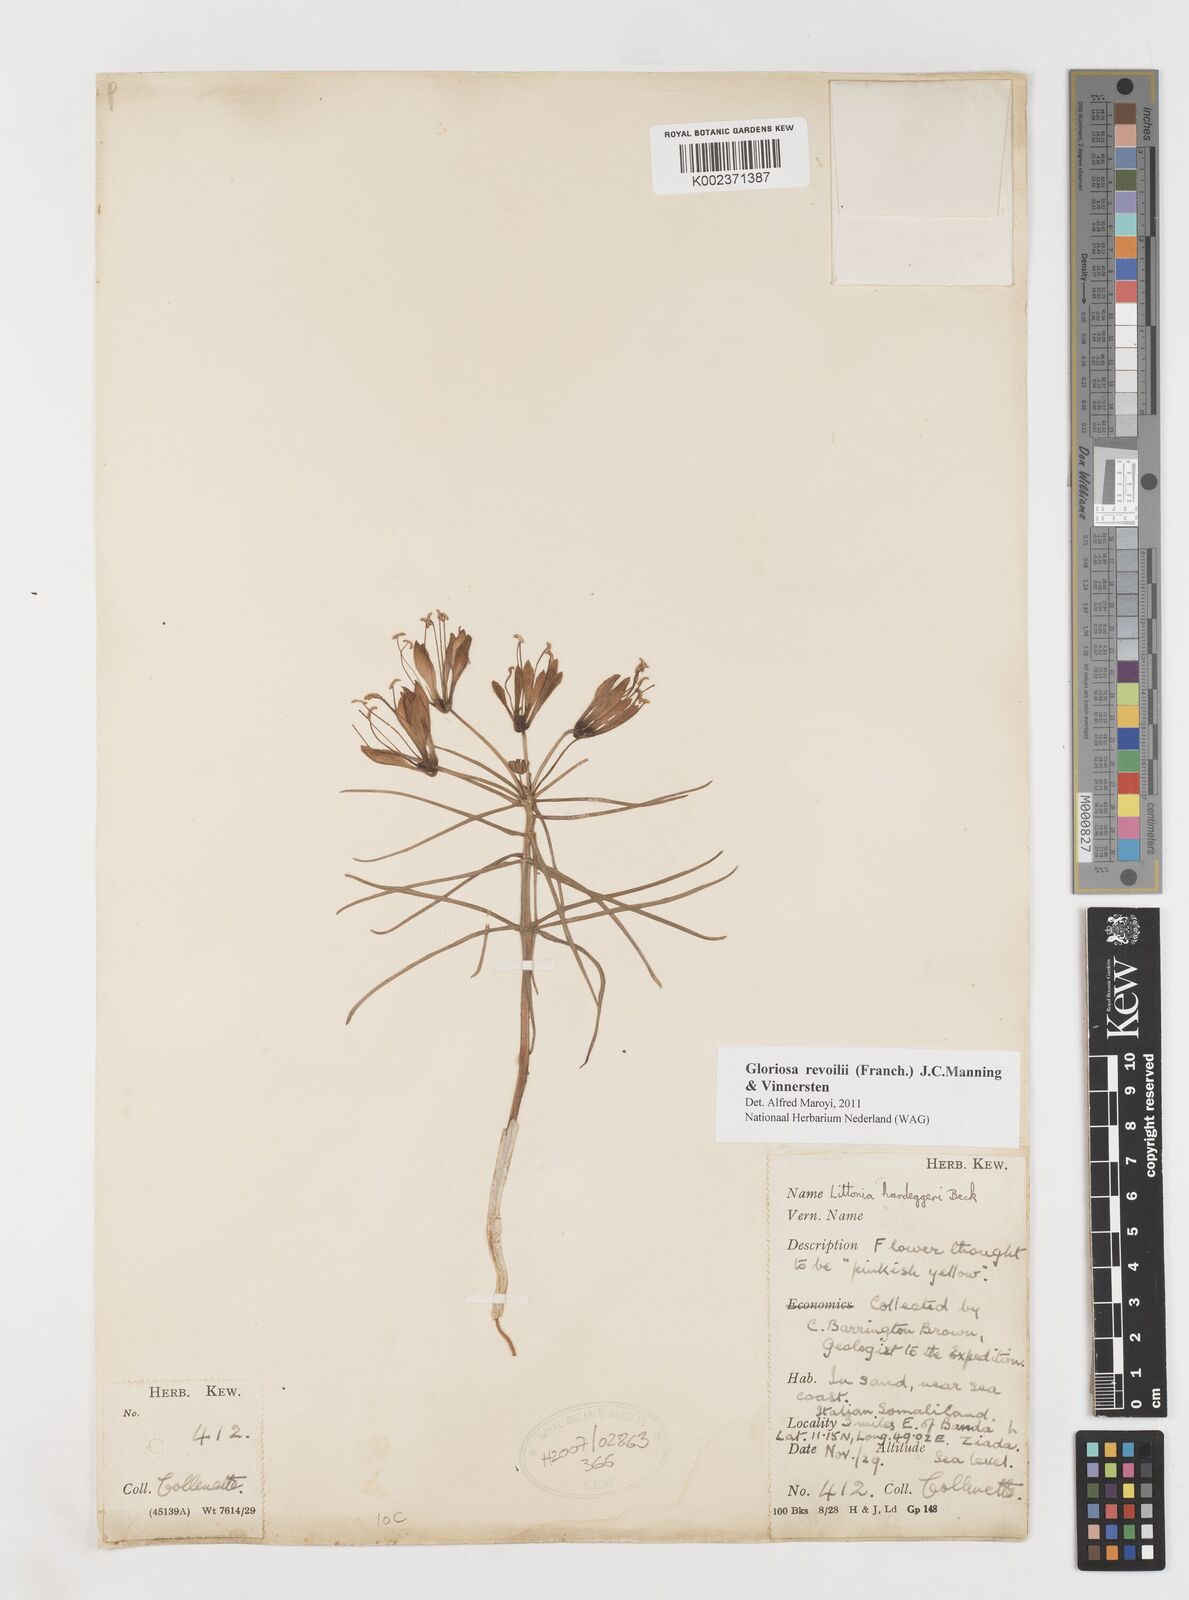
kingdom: Plantae
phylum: Tracheophyta
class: Liliopsida
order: Liliales
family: Colchicaceae
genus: Gloriosa
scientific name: Gloriosa revoilii
